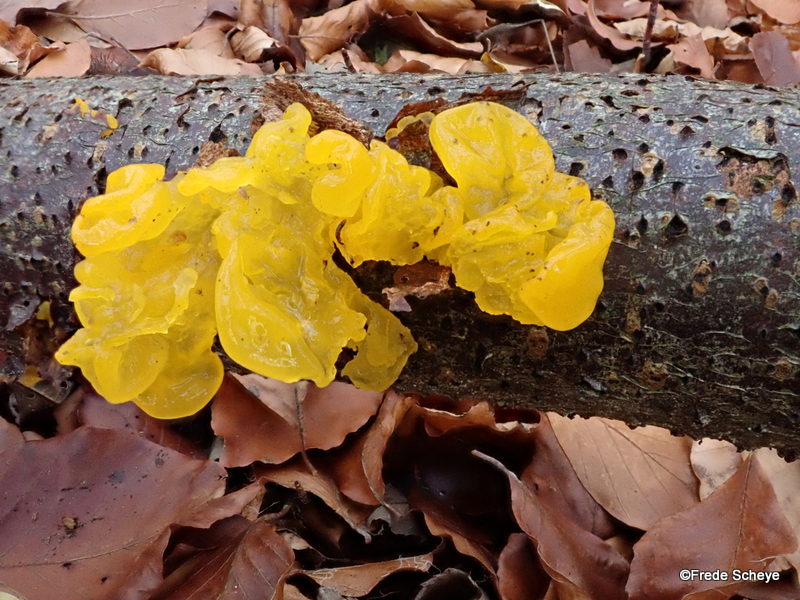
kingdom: Fungi
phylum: Basidiomycota
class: Tremellomycetes
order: Tremellales
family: Tremellaceae
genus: Tremella
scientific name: Tremella mesenterica
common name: gul bævresvamp
